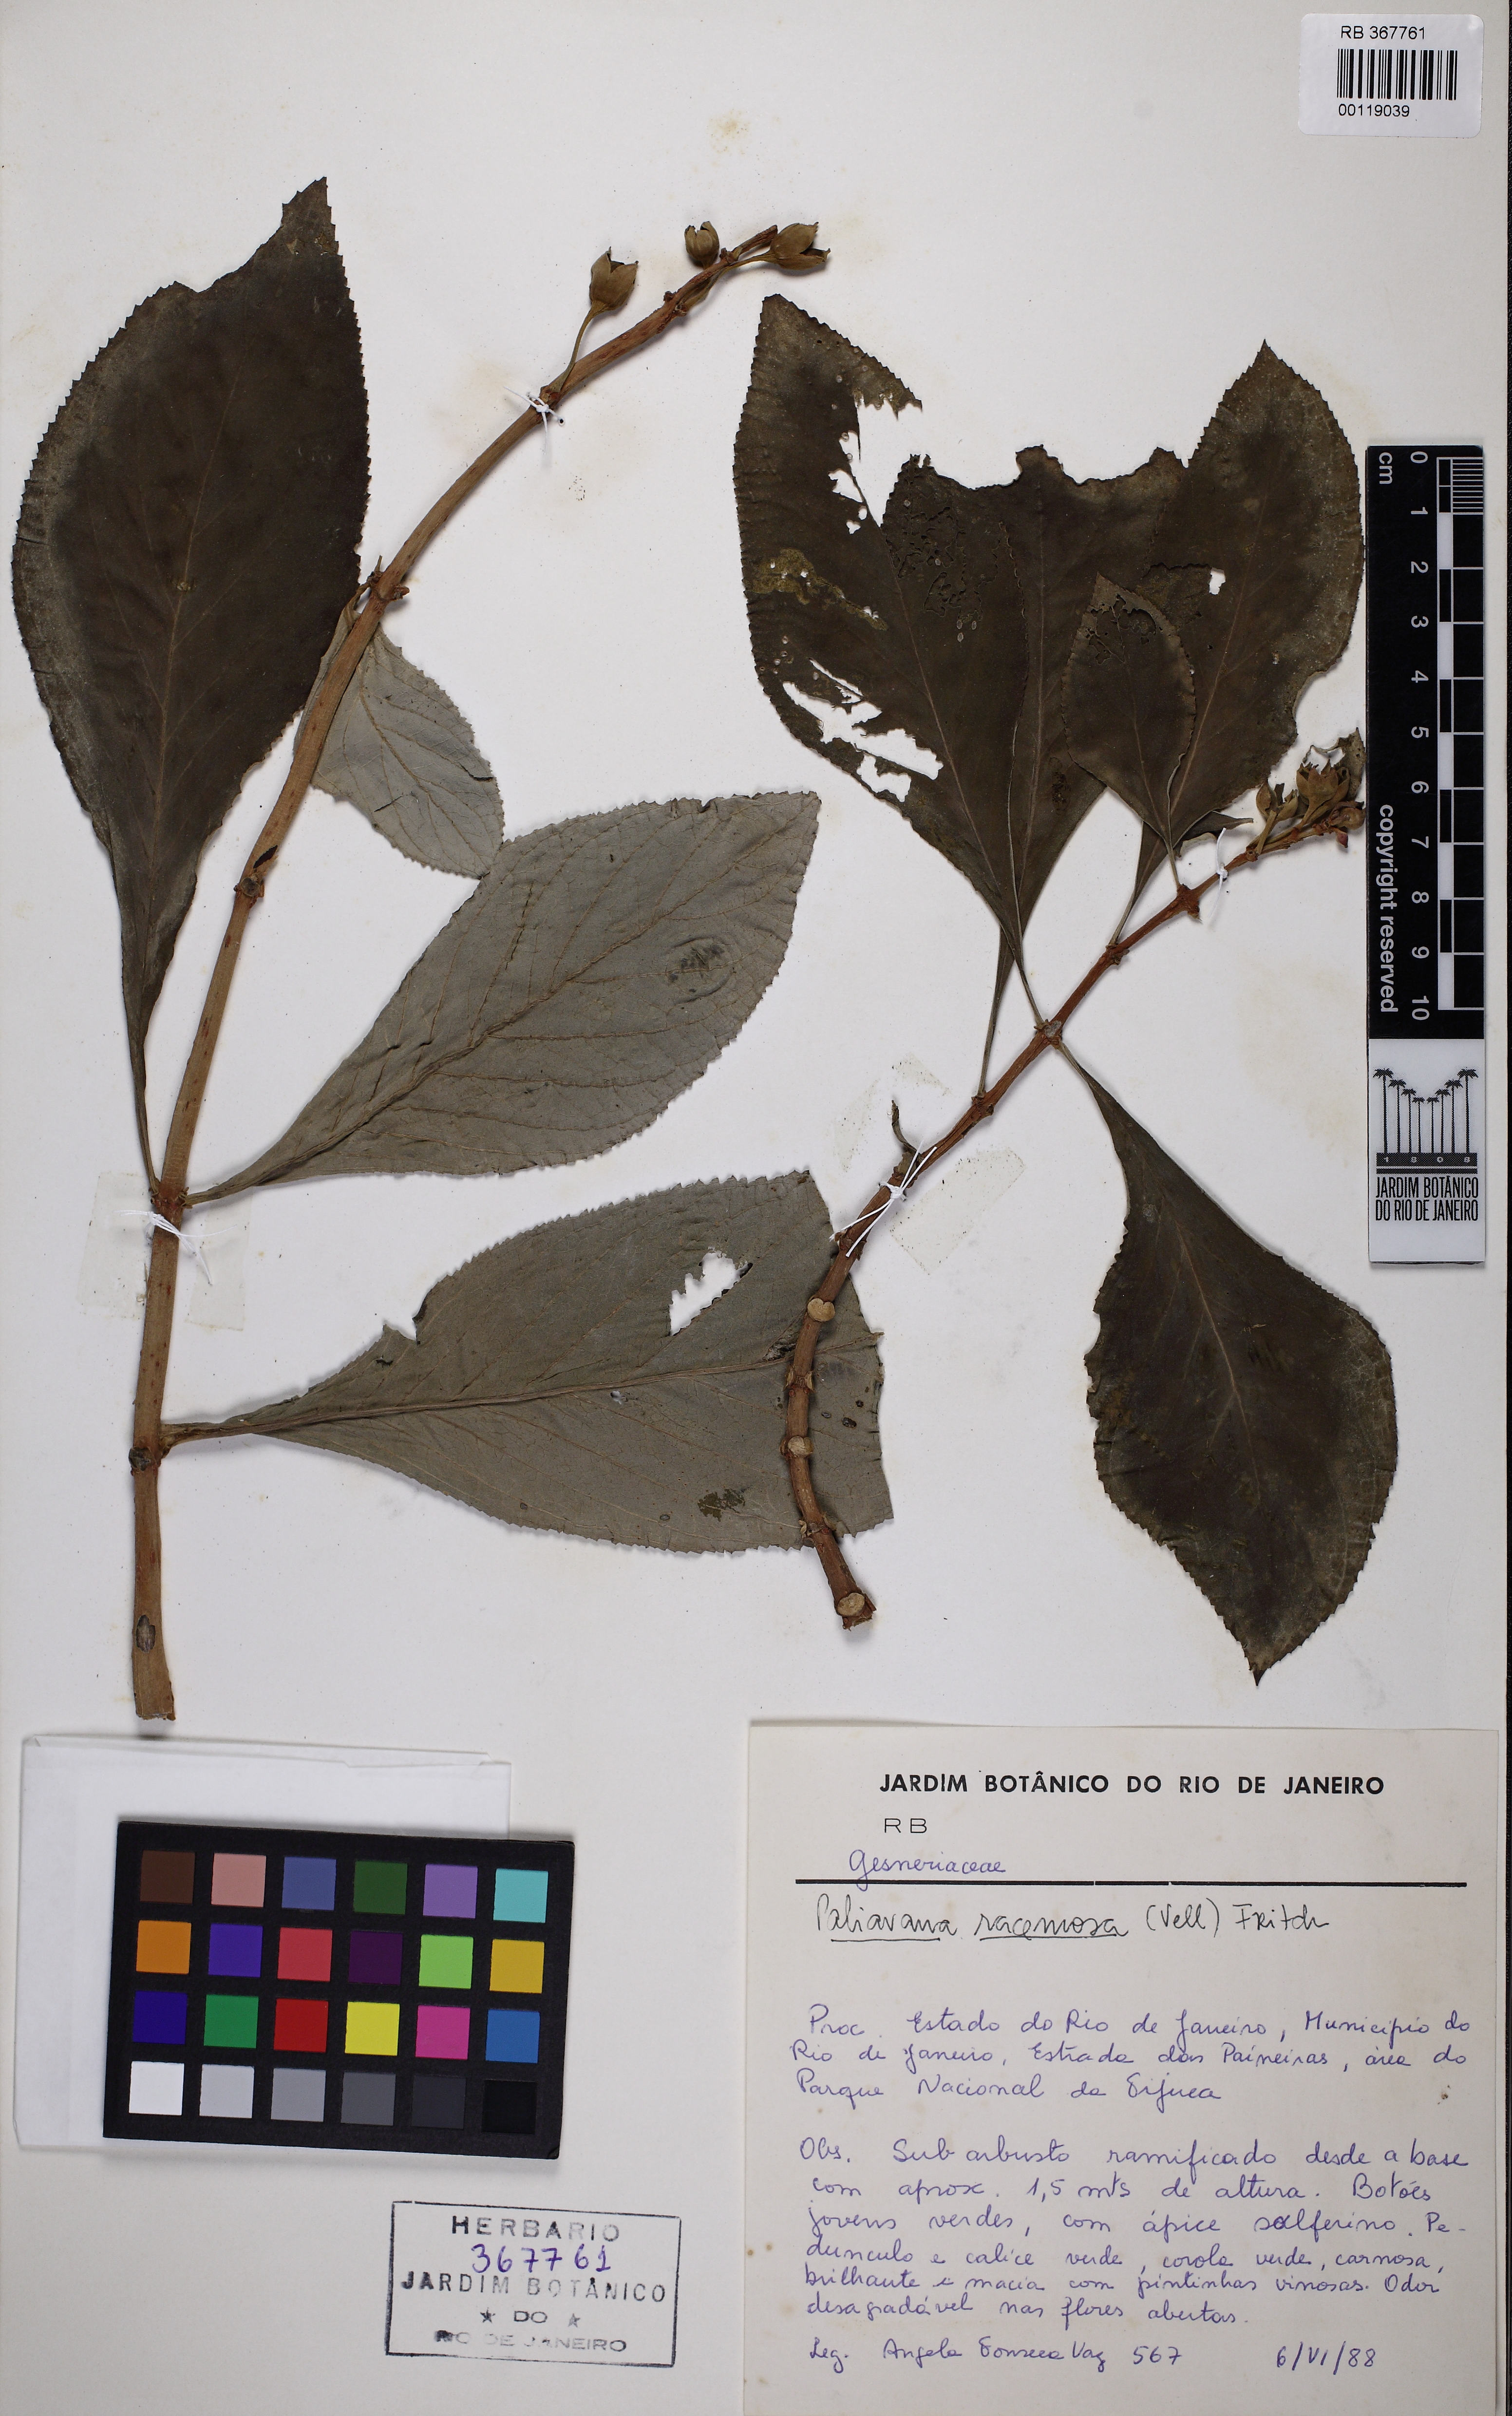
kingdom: Plantae
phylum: Tracheophyta
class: Magnoliopsida
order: Lamiales
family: Gesneriaceae
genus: Paliavana
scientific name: Paliavana prasinata
